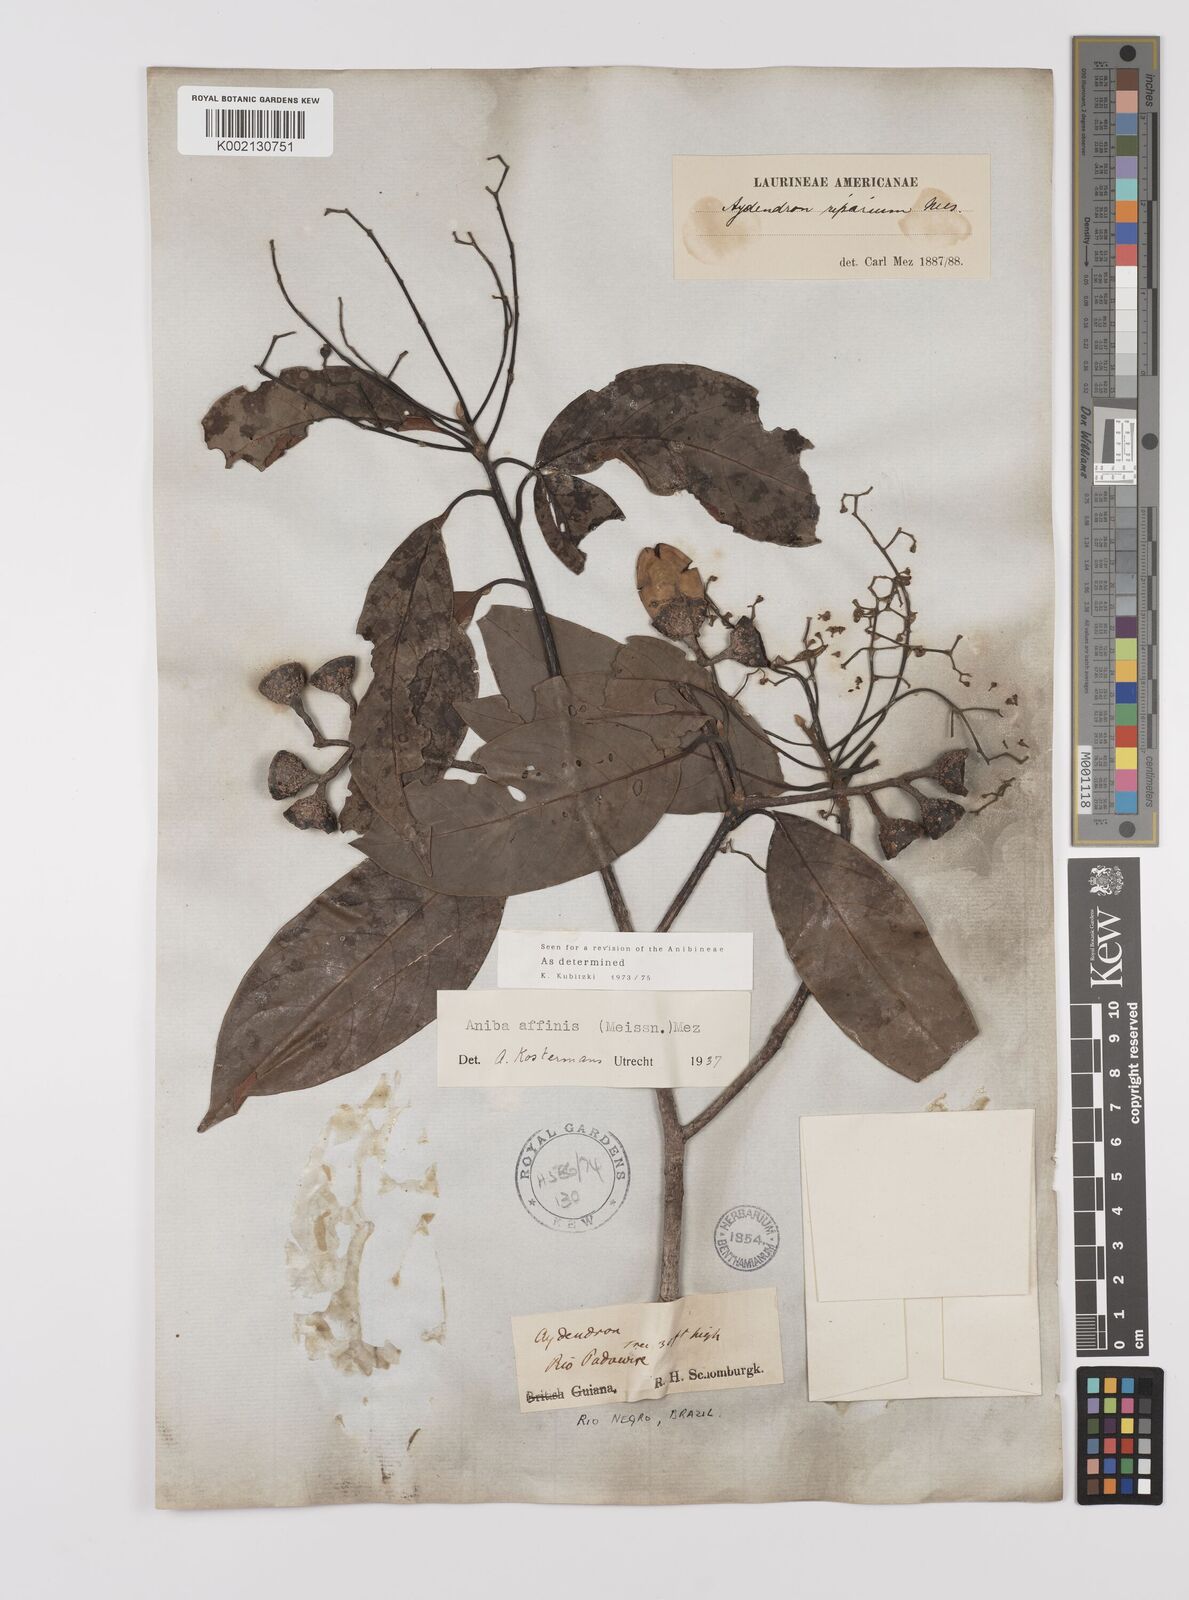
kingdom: Plantae
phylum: Tracheophyta
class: Magnoliopsida
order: Laurales
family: Lauraceae
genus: Aniba
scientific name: Aniba affinis
